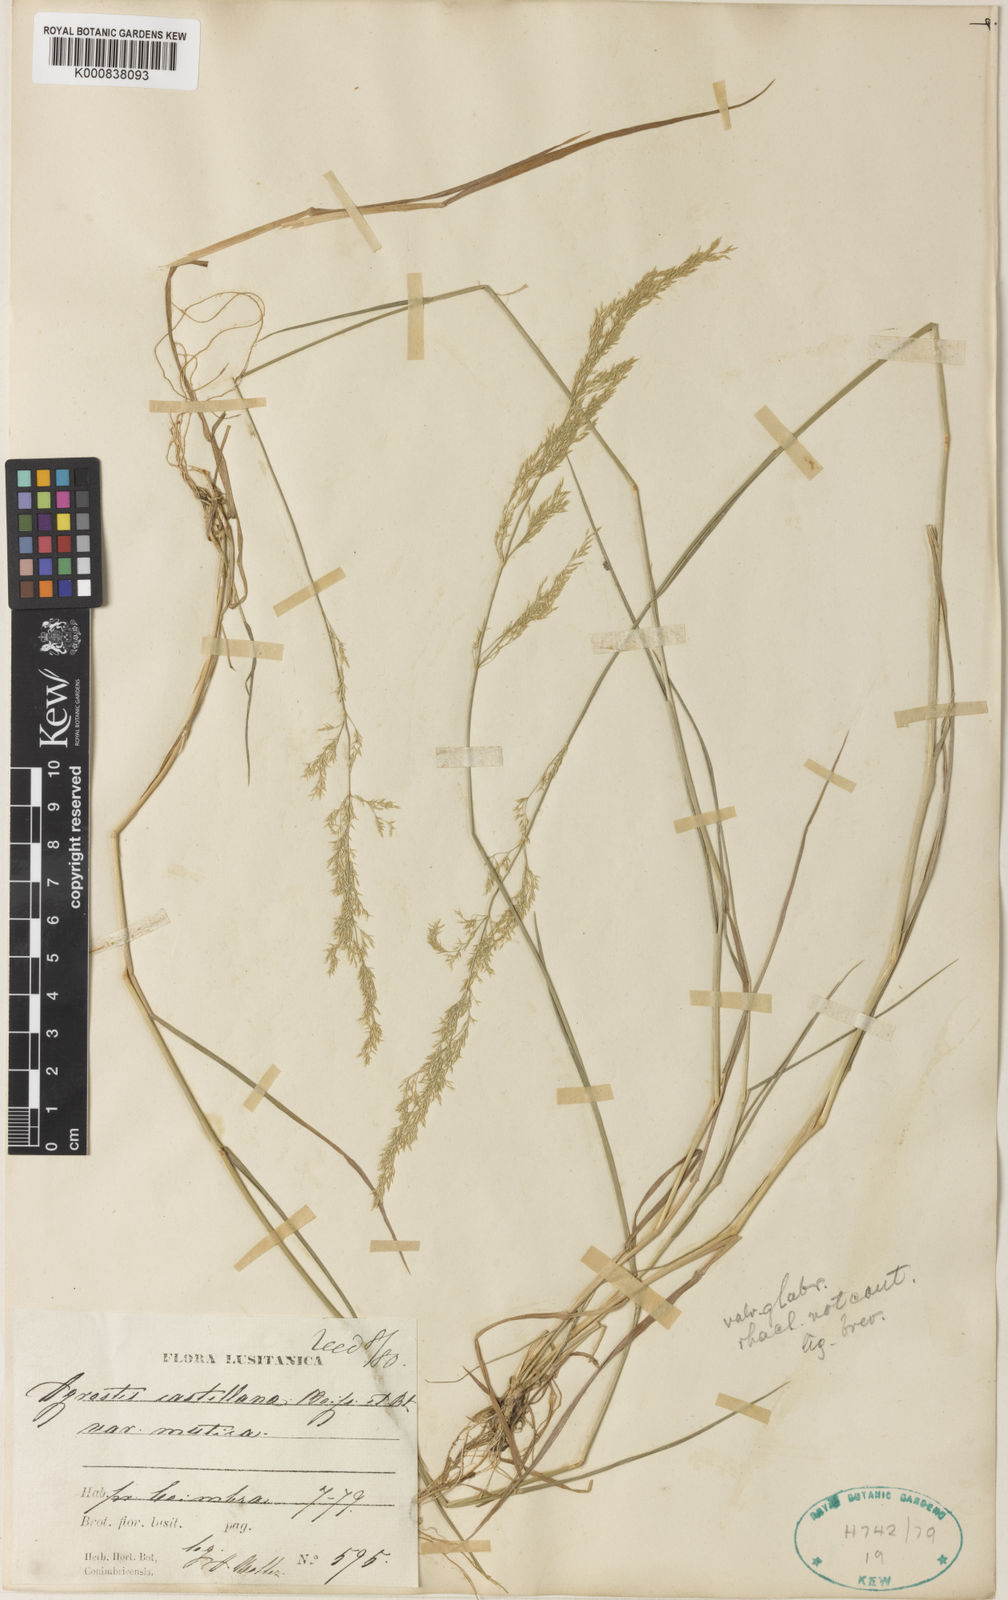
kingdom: Plantae
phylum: Tracheophyta
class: Liliopsida
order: Poales
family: Poaceae
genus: Agrostis
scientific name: Agrostis castellana
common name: Highland bent
